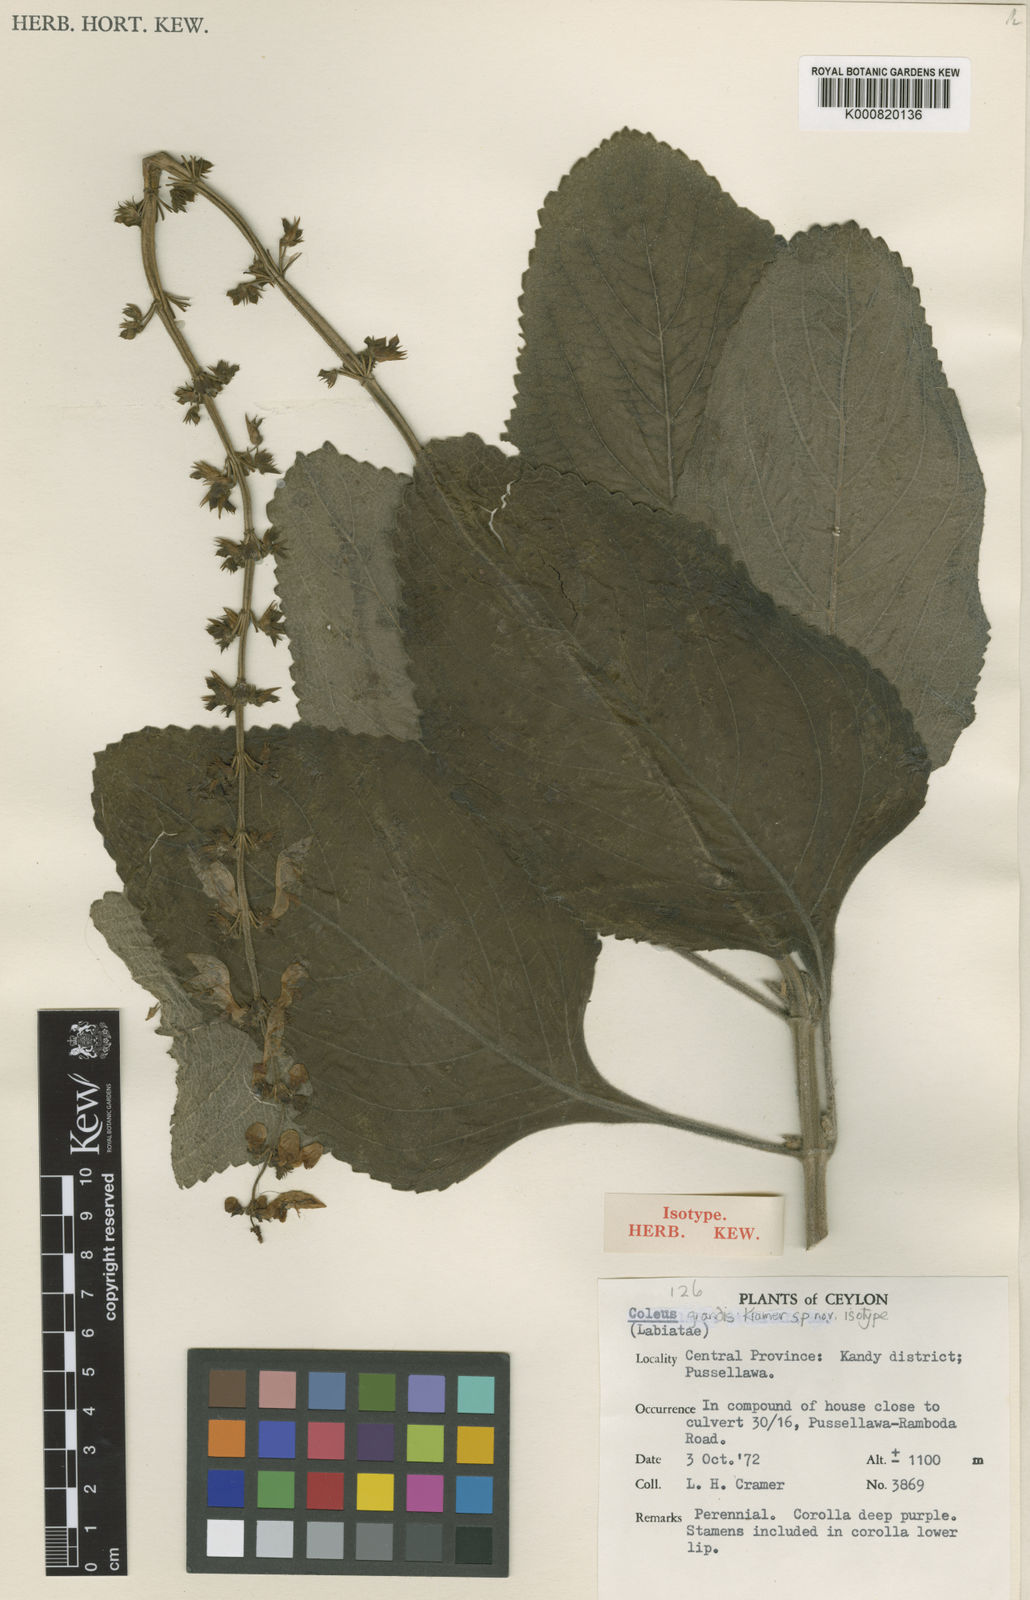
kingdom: Plantae
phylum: Tracheophyta
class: Magnoliopsida
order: Lamiales
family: Lamiaceae
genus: Coleus
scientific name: Coleus barbatus
